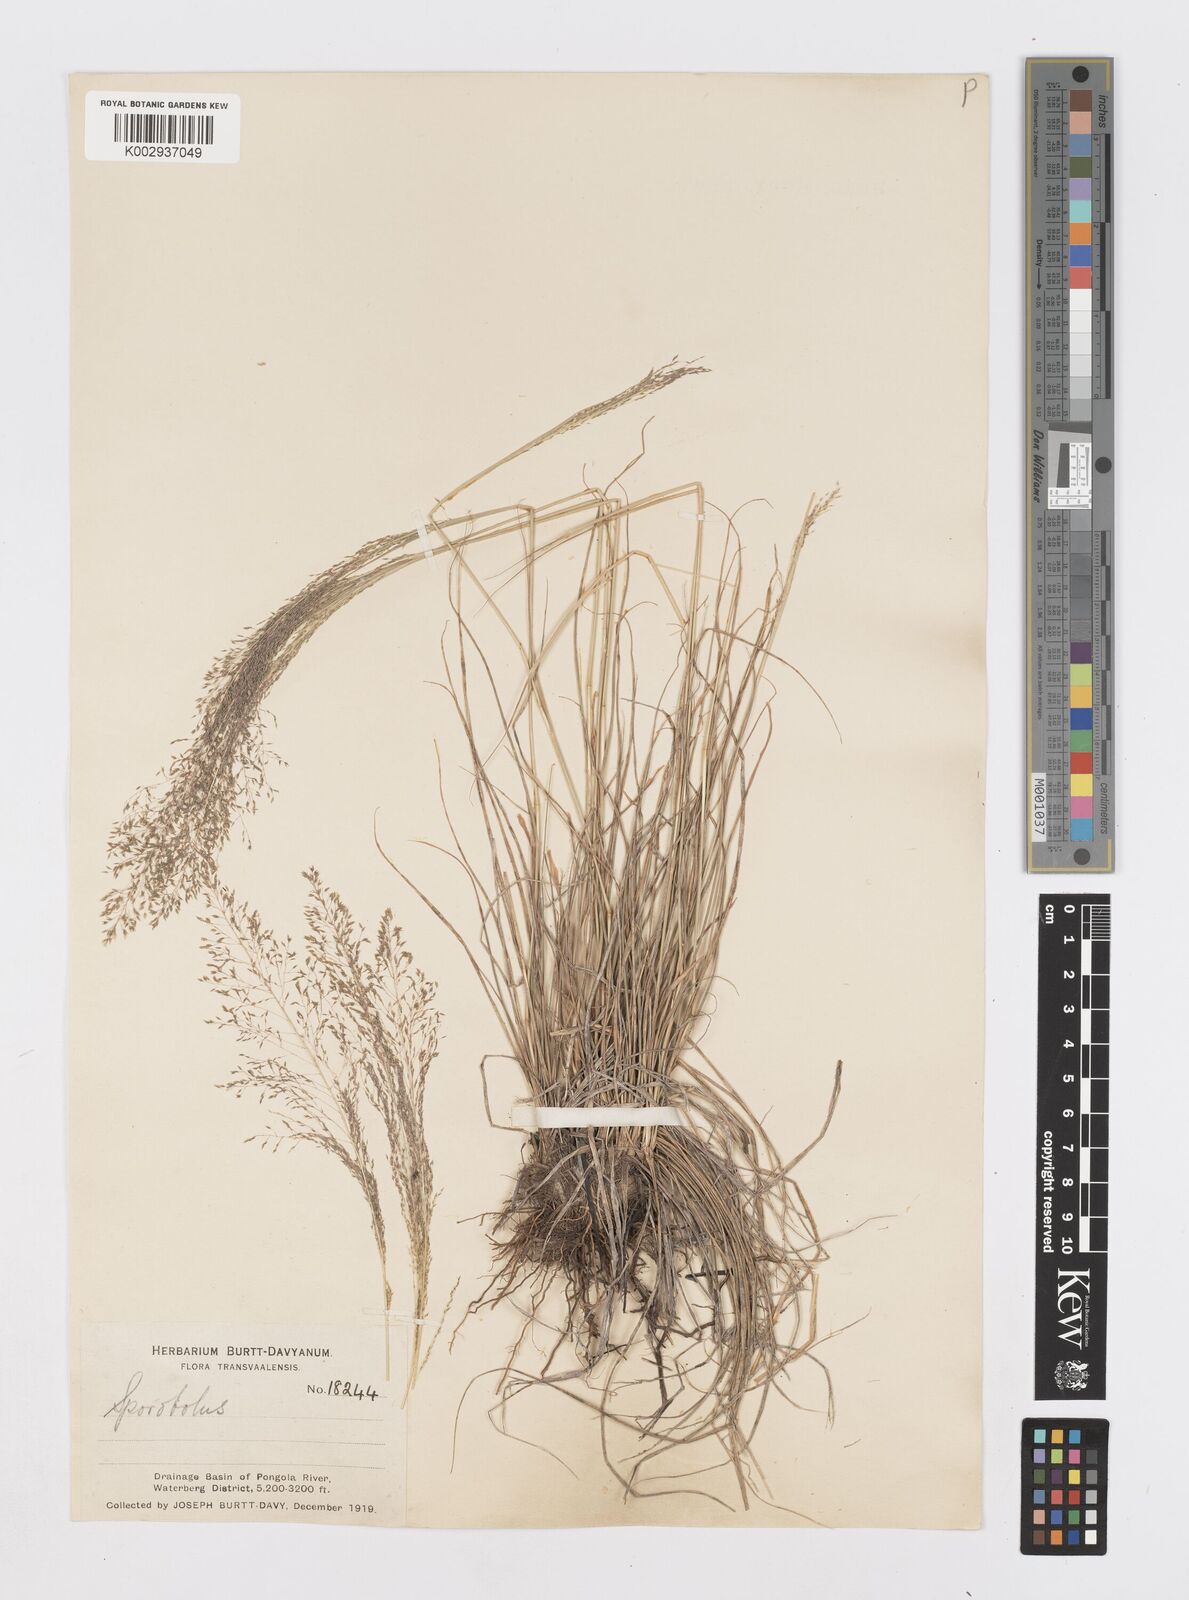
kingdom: Plantae
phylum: Tracheophyta
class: Liliopsida
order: Poales
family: Poaceae
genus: Sporobolus
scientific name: Sporobolus
